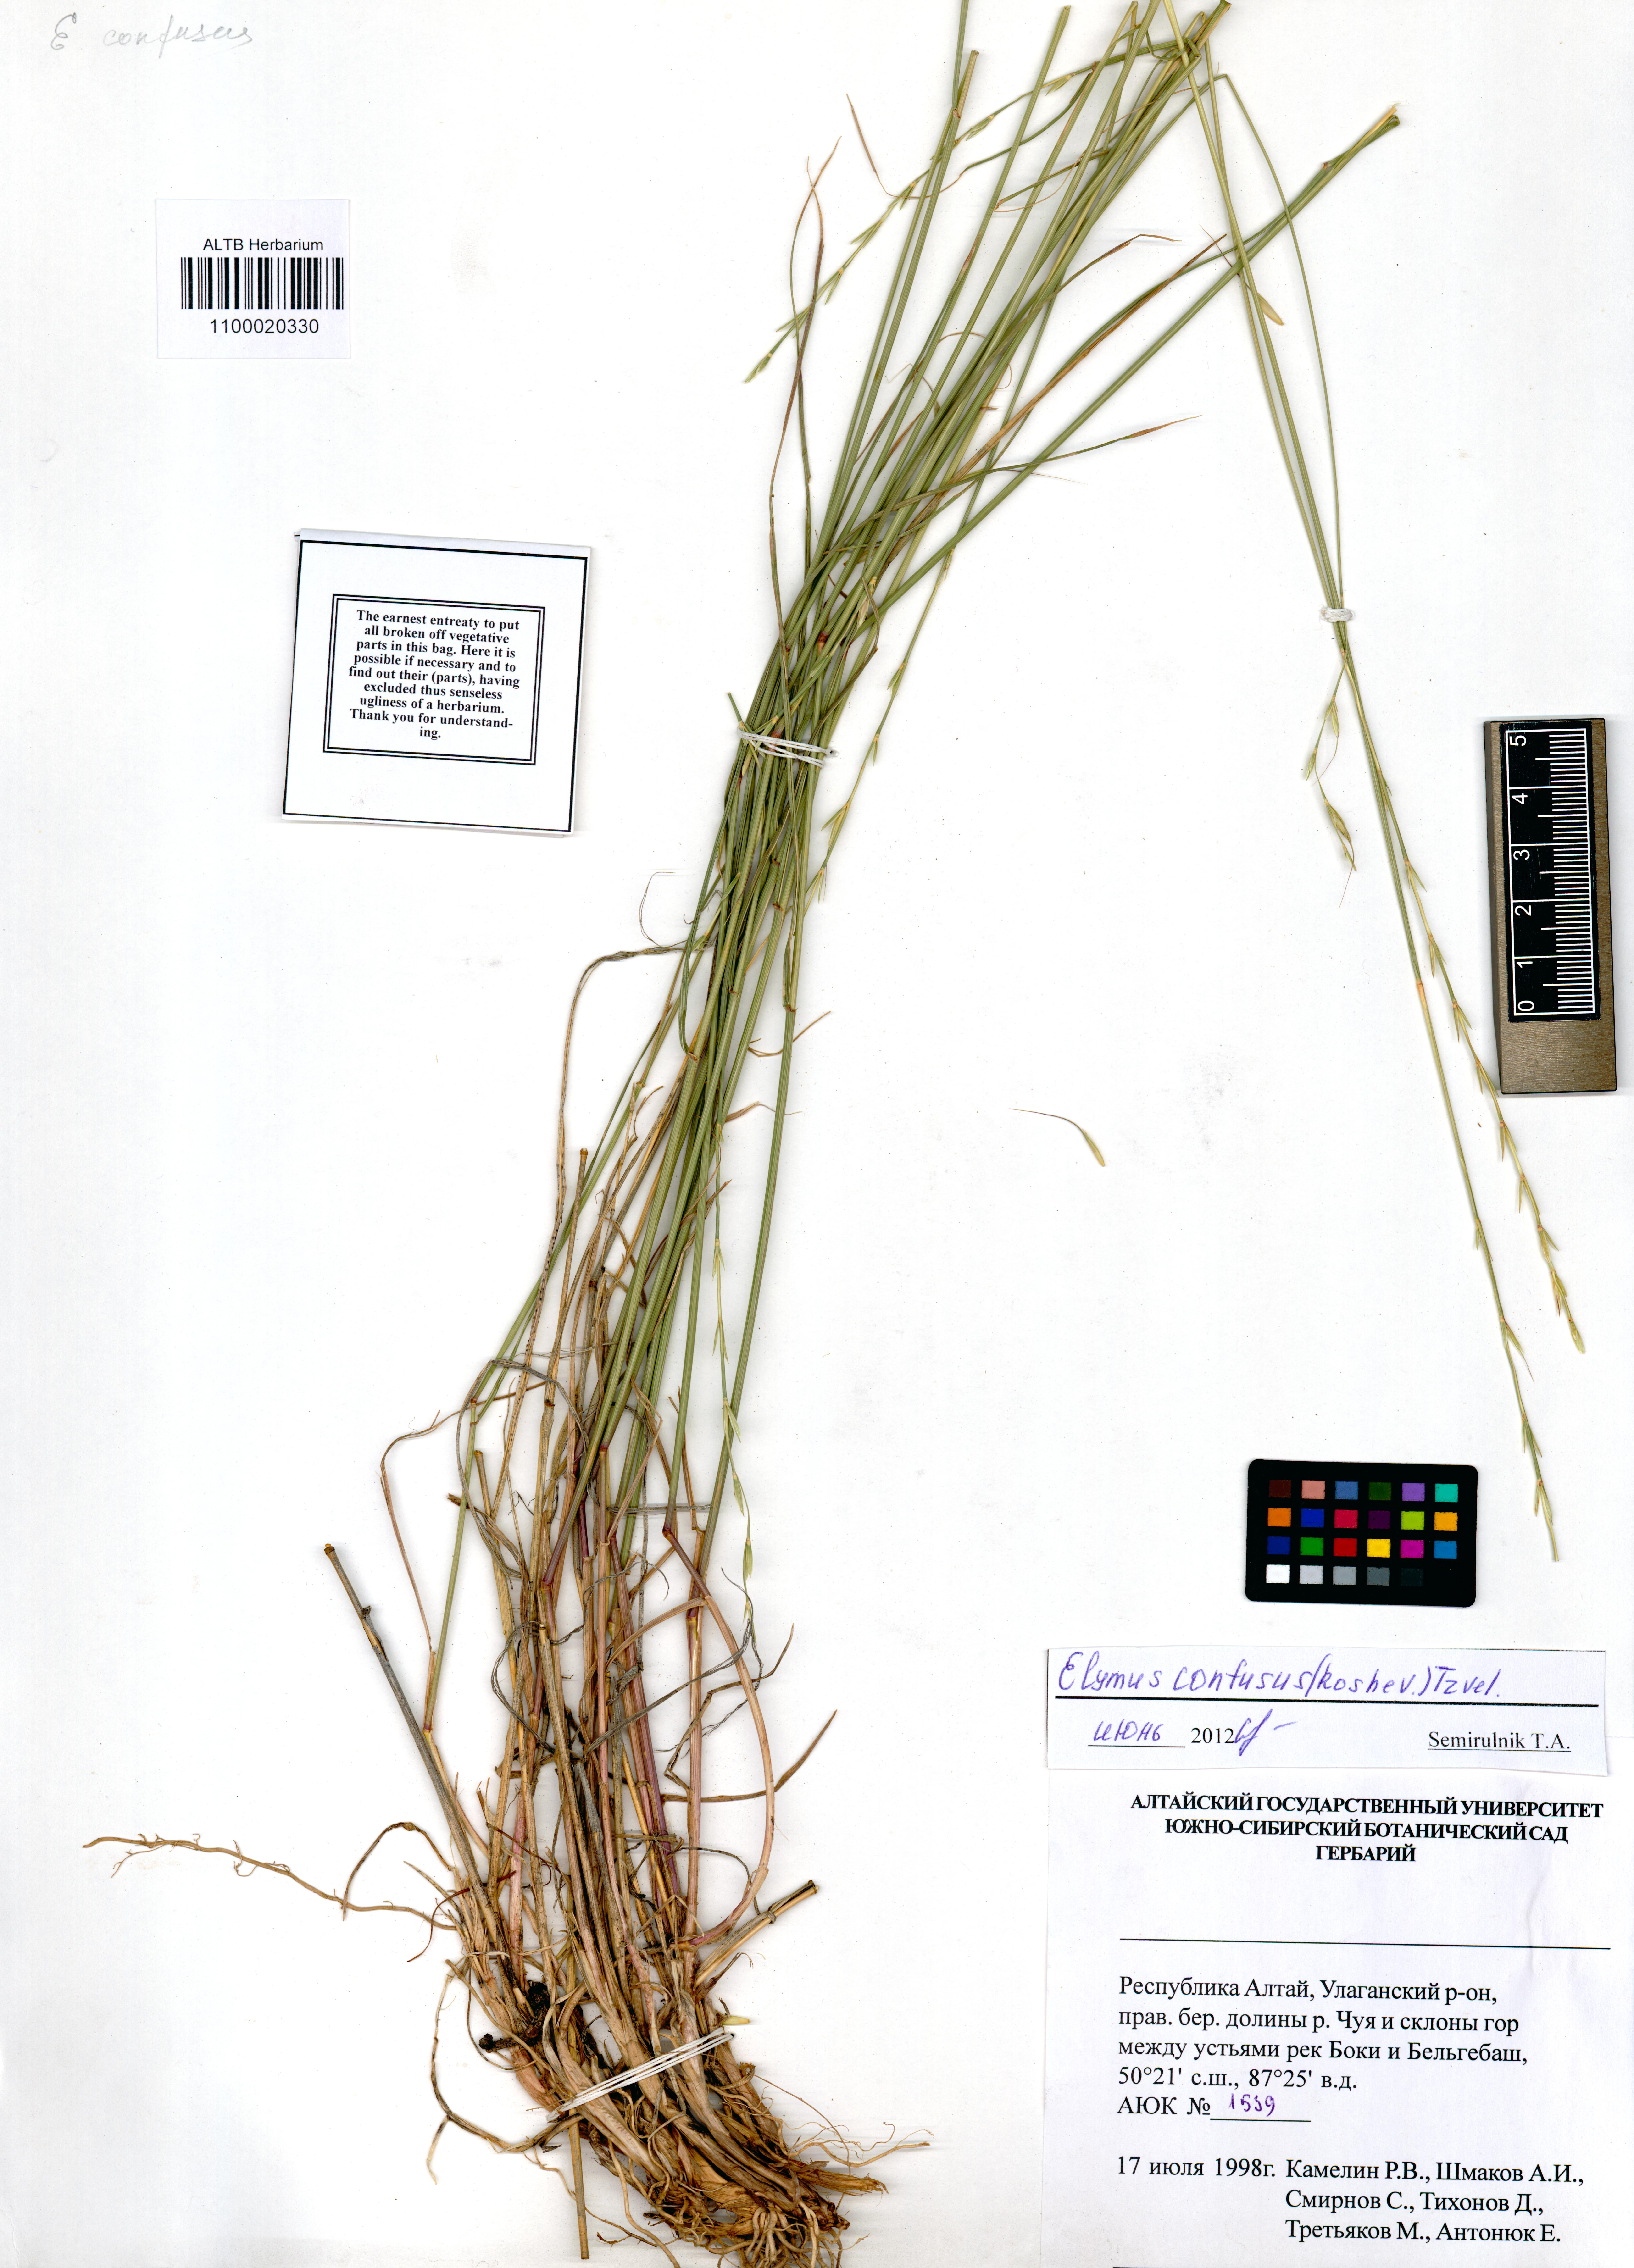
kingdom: Plantae
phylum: Tracheophyta
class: Liliopsida
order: Poales
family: Poaceae
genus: Elymus
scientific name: Elymus caninus
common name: Bearded couch
